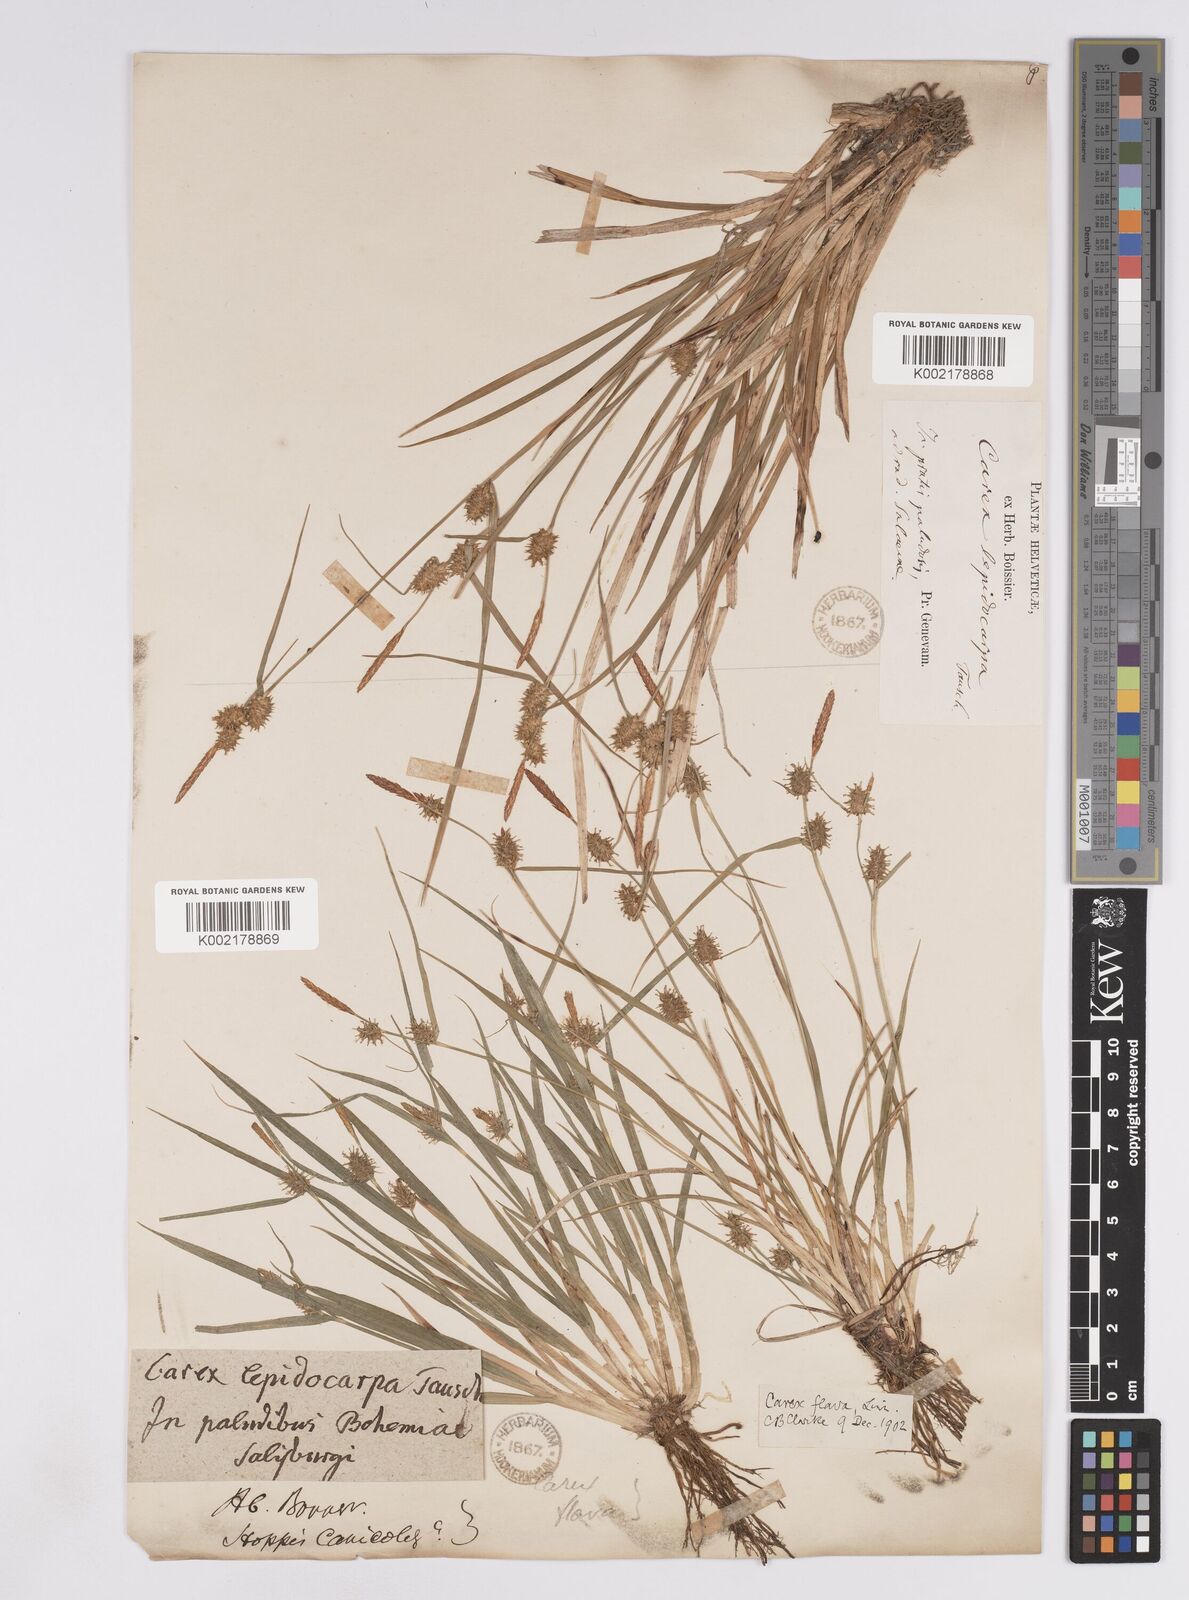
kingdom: Plantae
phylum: Tracheophyta
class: Liliopsida
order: Poales
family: Cyperaceae
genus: Carex
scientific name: Carex lepidocarpa
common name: Long-stalked yellow-sedge
